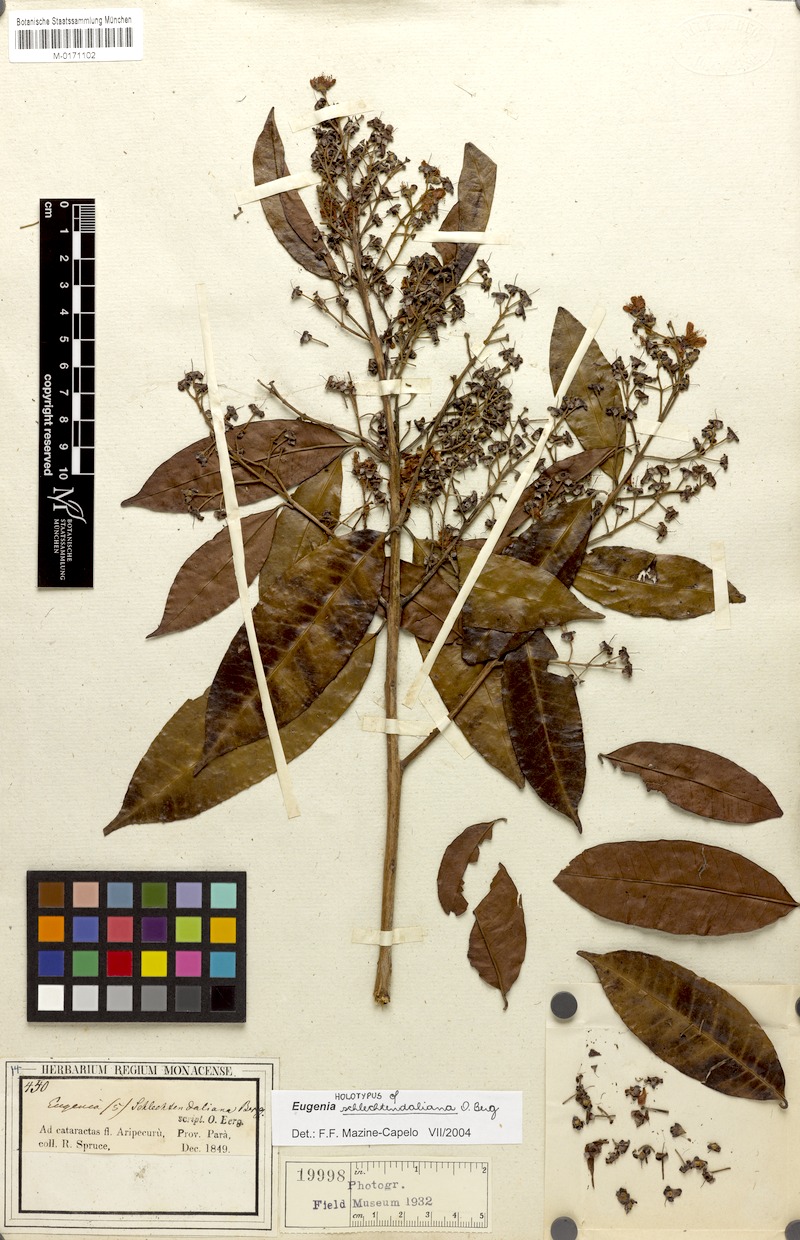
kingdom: Plantae
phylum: Tracheophyta
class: Magnoliopsida
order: Myrtales
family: Myrtaceae
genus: Eugenia
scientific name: Eugenia polystachya
